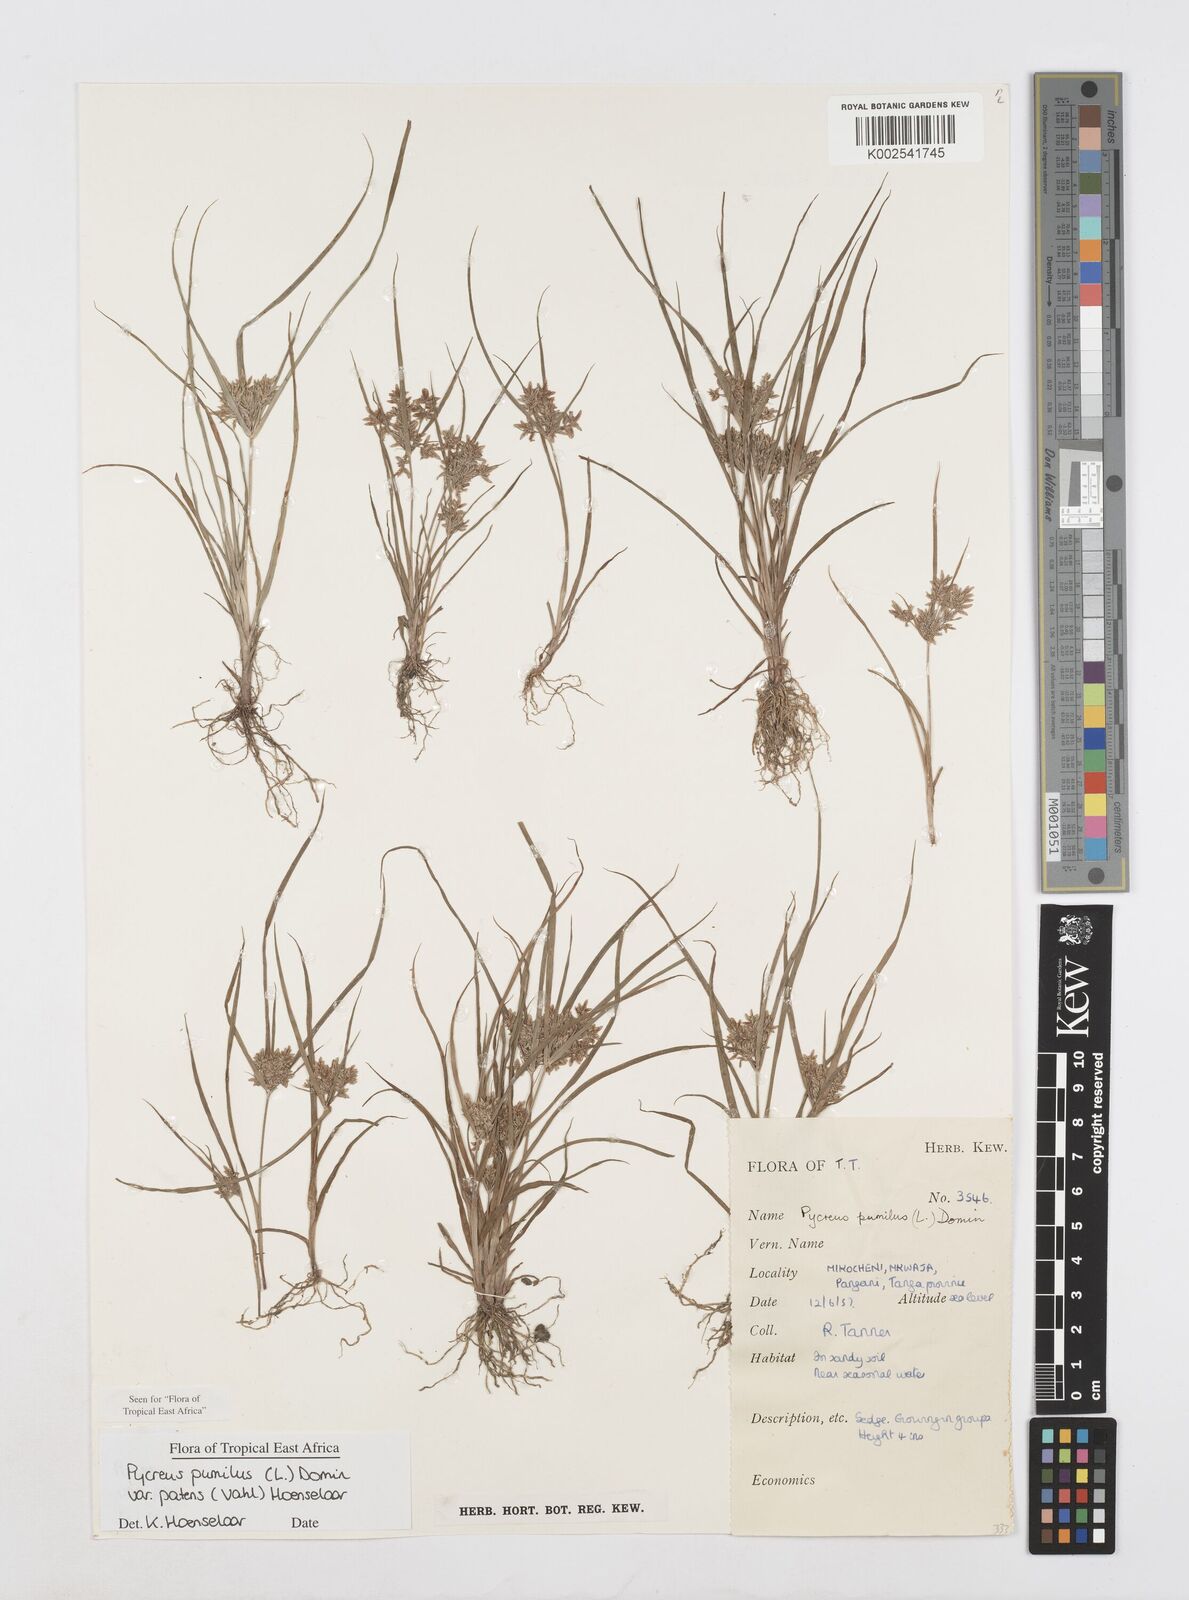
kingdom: Plantae
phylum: Tracheophyta
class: Liliopsida
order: Poales
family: Cyperaceae
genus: Cyperus
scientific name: Cyperus pumilus
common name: Low flatsedge
